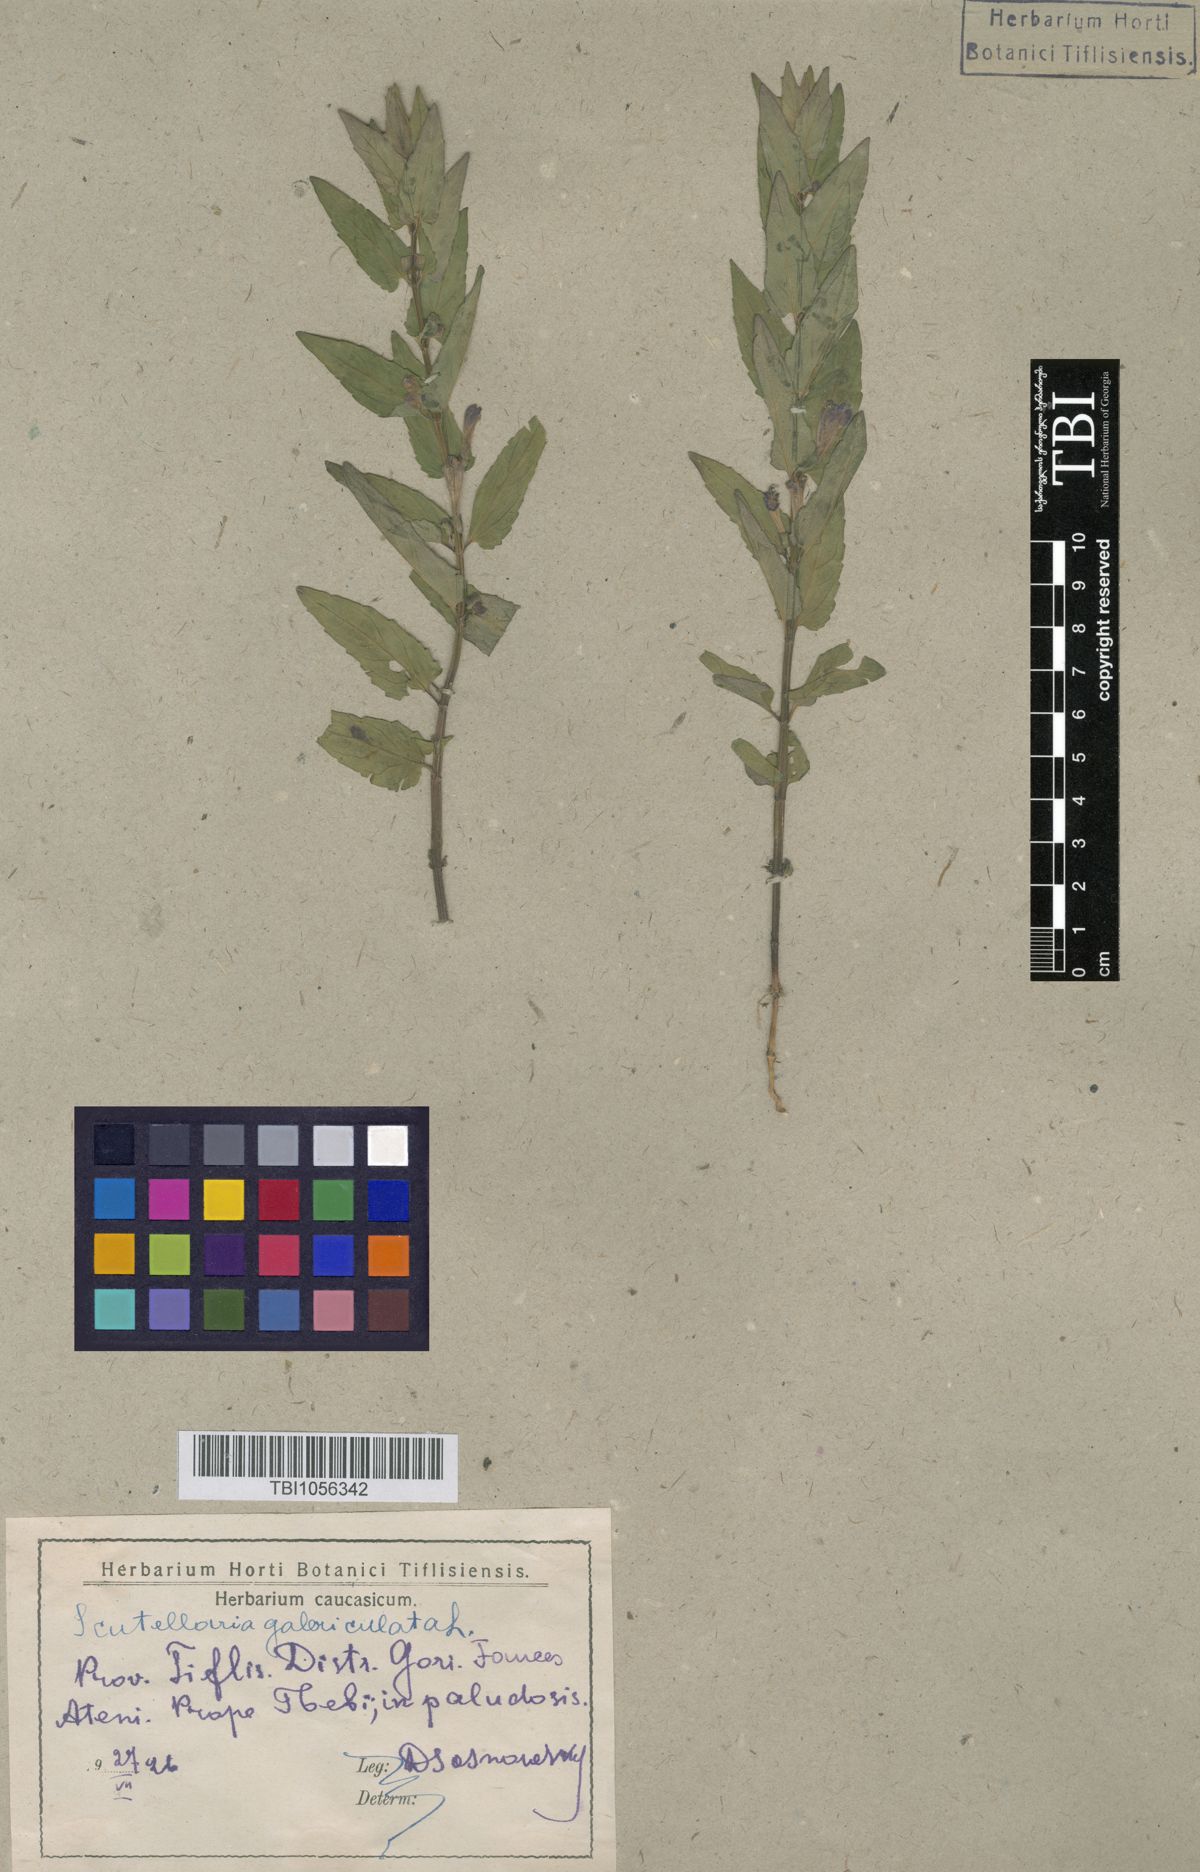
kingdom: Plantae
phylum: Tracheophyta
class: Magnoliopsida
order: Lamiales
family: Lamiaceae
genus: Scutellaria
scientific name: Scutellaria galericulata
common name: Skullcap
